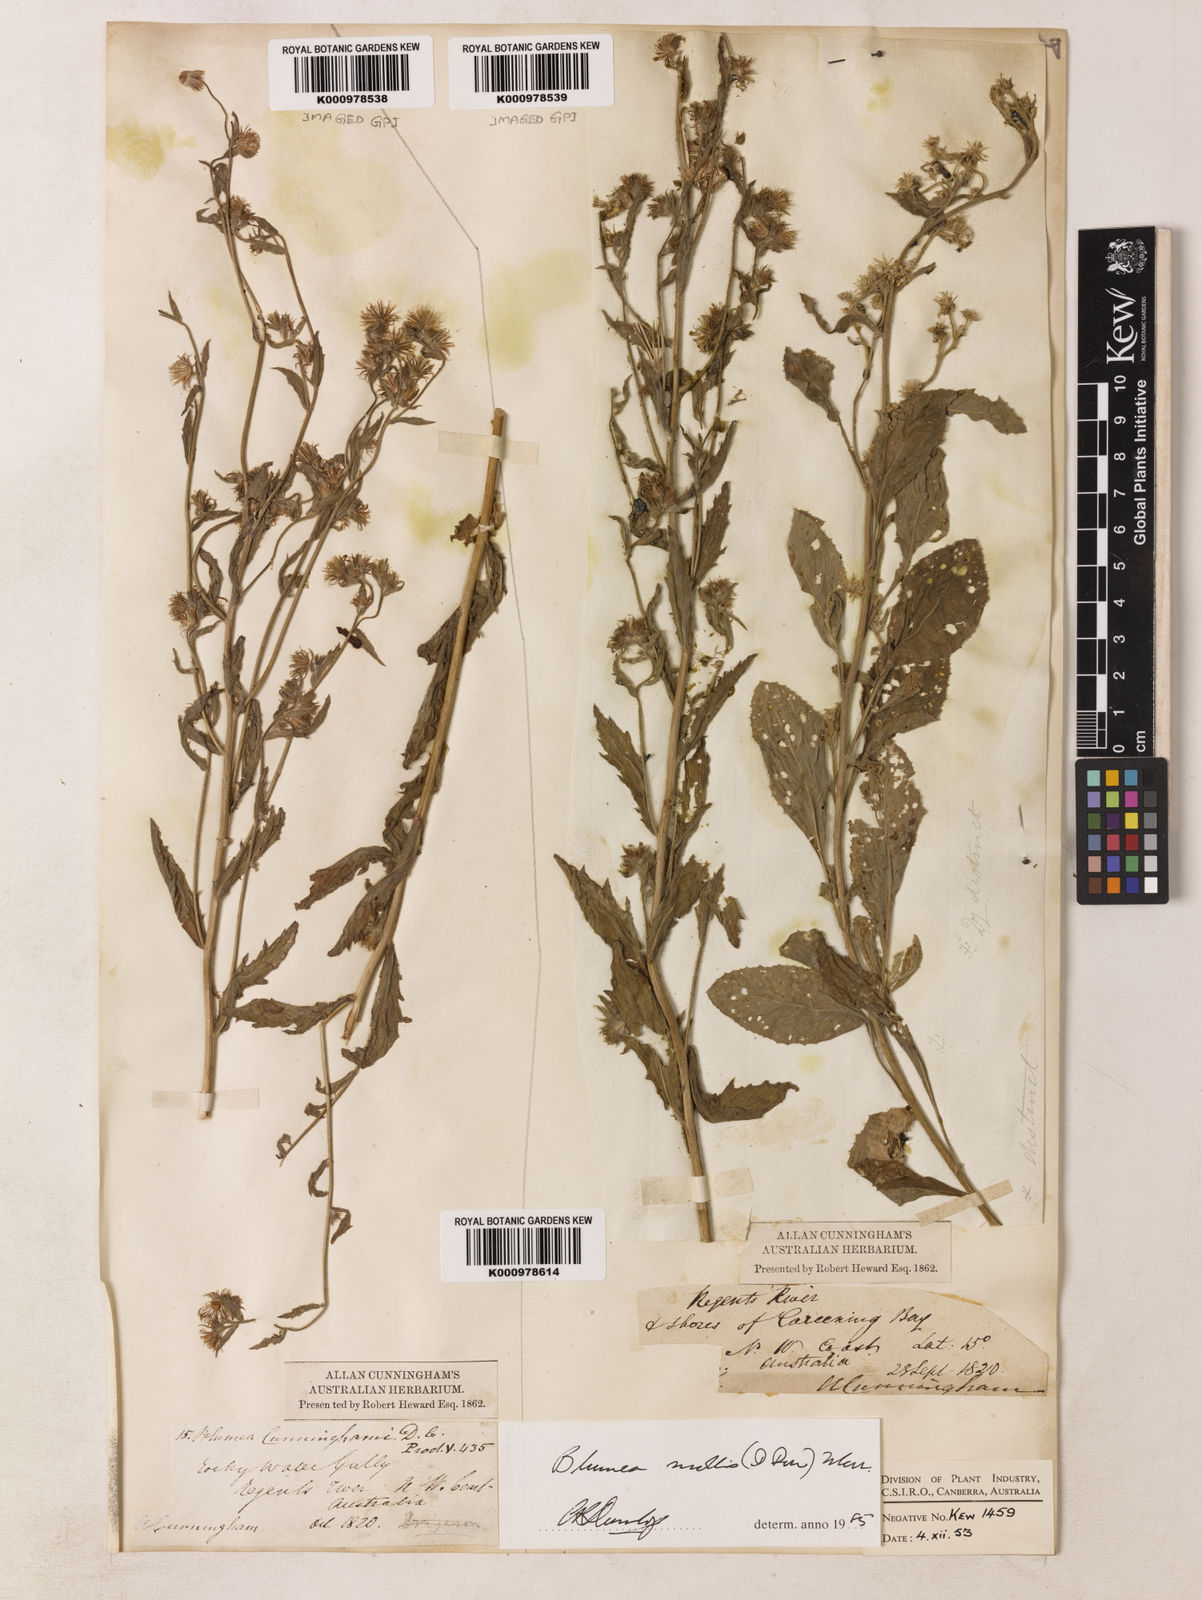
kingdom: Plantae
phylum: Tracheophyta
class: Magnoliopsida
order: Asterales
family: Asteraceae
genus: Blumea
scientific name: Blumea axillaris
